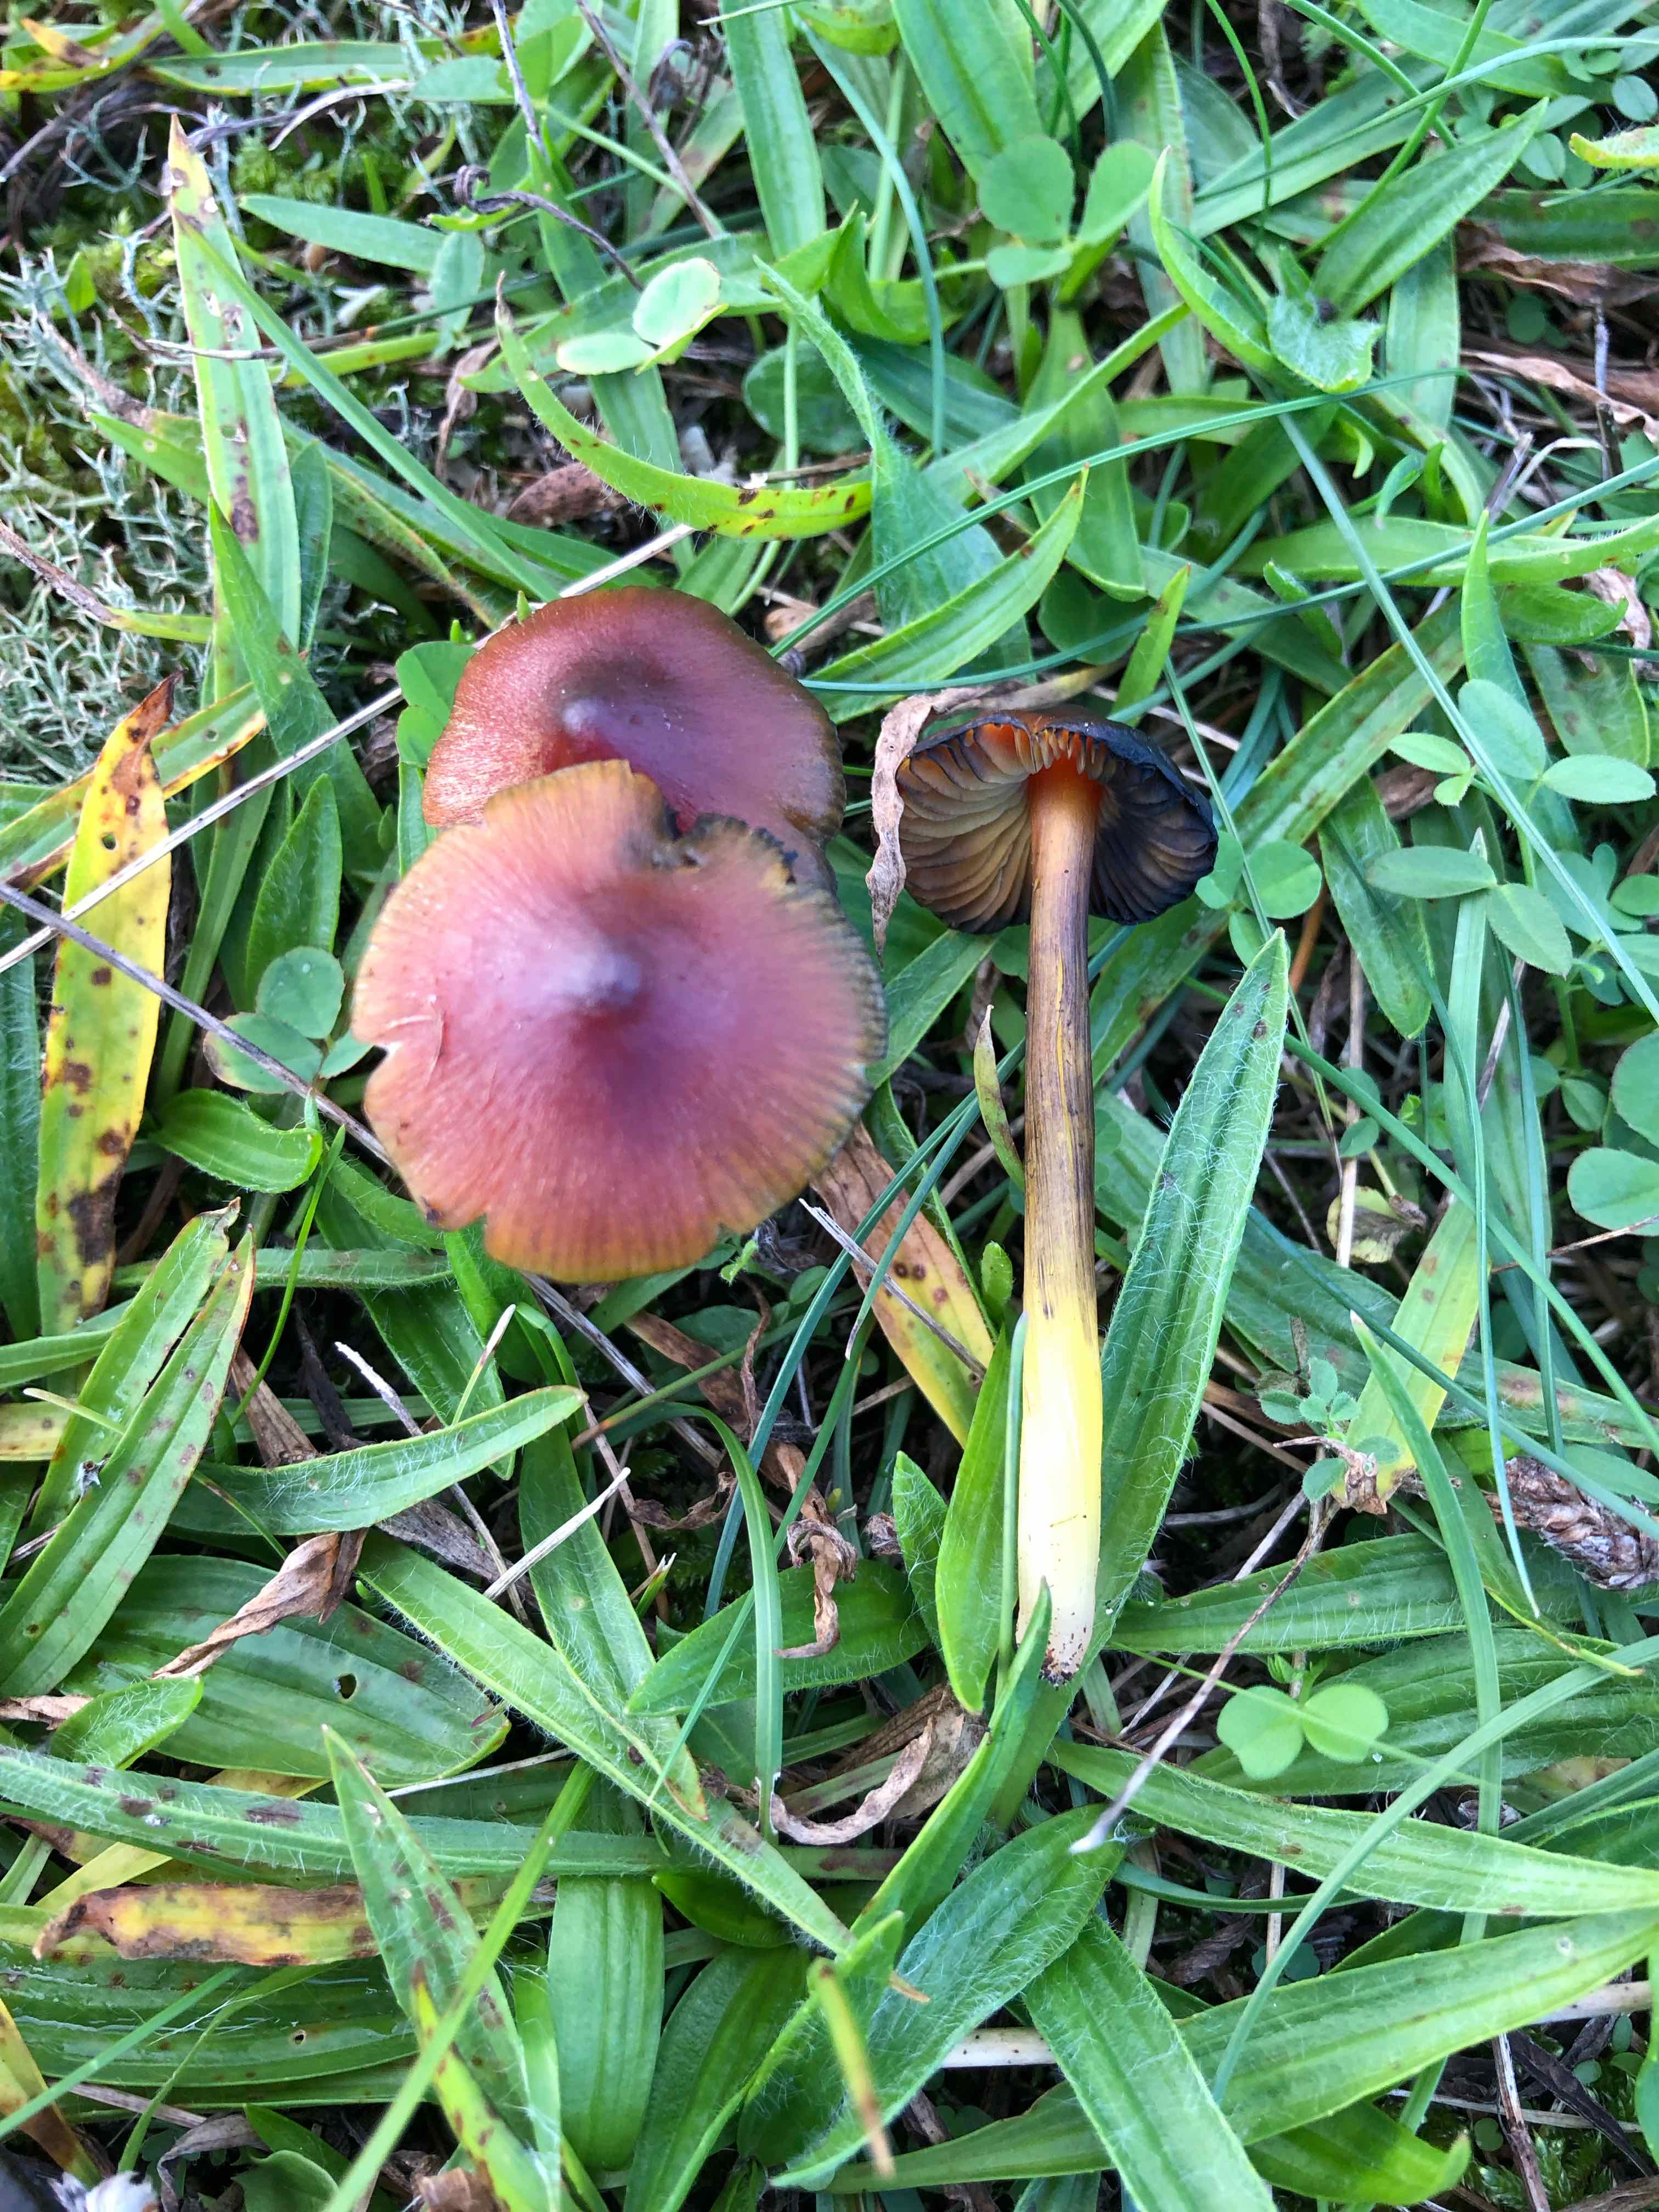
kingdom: Fungi
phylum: Basidiomycota
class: Agaricomycetes
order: Agaricales
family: Hygrophoraceae
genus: Hygrocybe
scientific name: Hygrocybe conica
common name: kegle-vokshat
